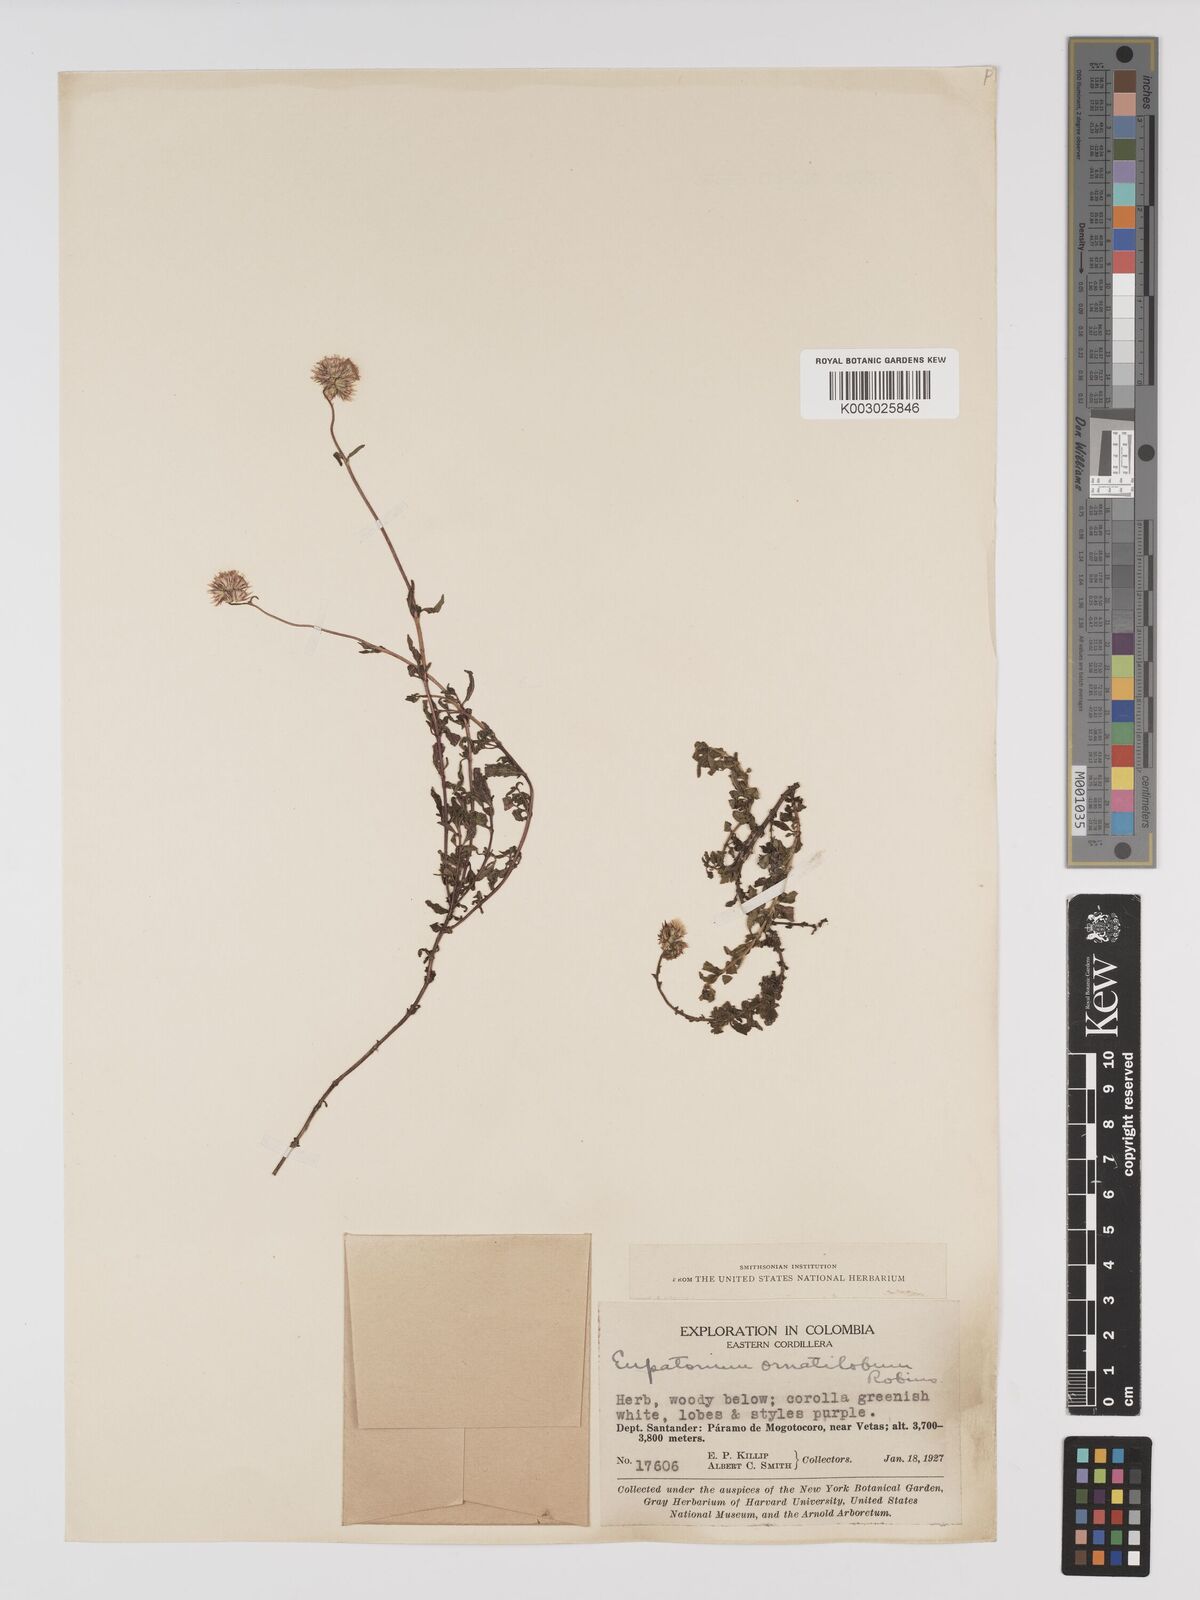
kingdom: Plantae
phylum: Tracheophyta
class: Magnoliopsida
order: Asterales
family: Asteraceae
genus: Lourteigia
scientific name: Lourteigia ornatiloba
